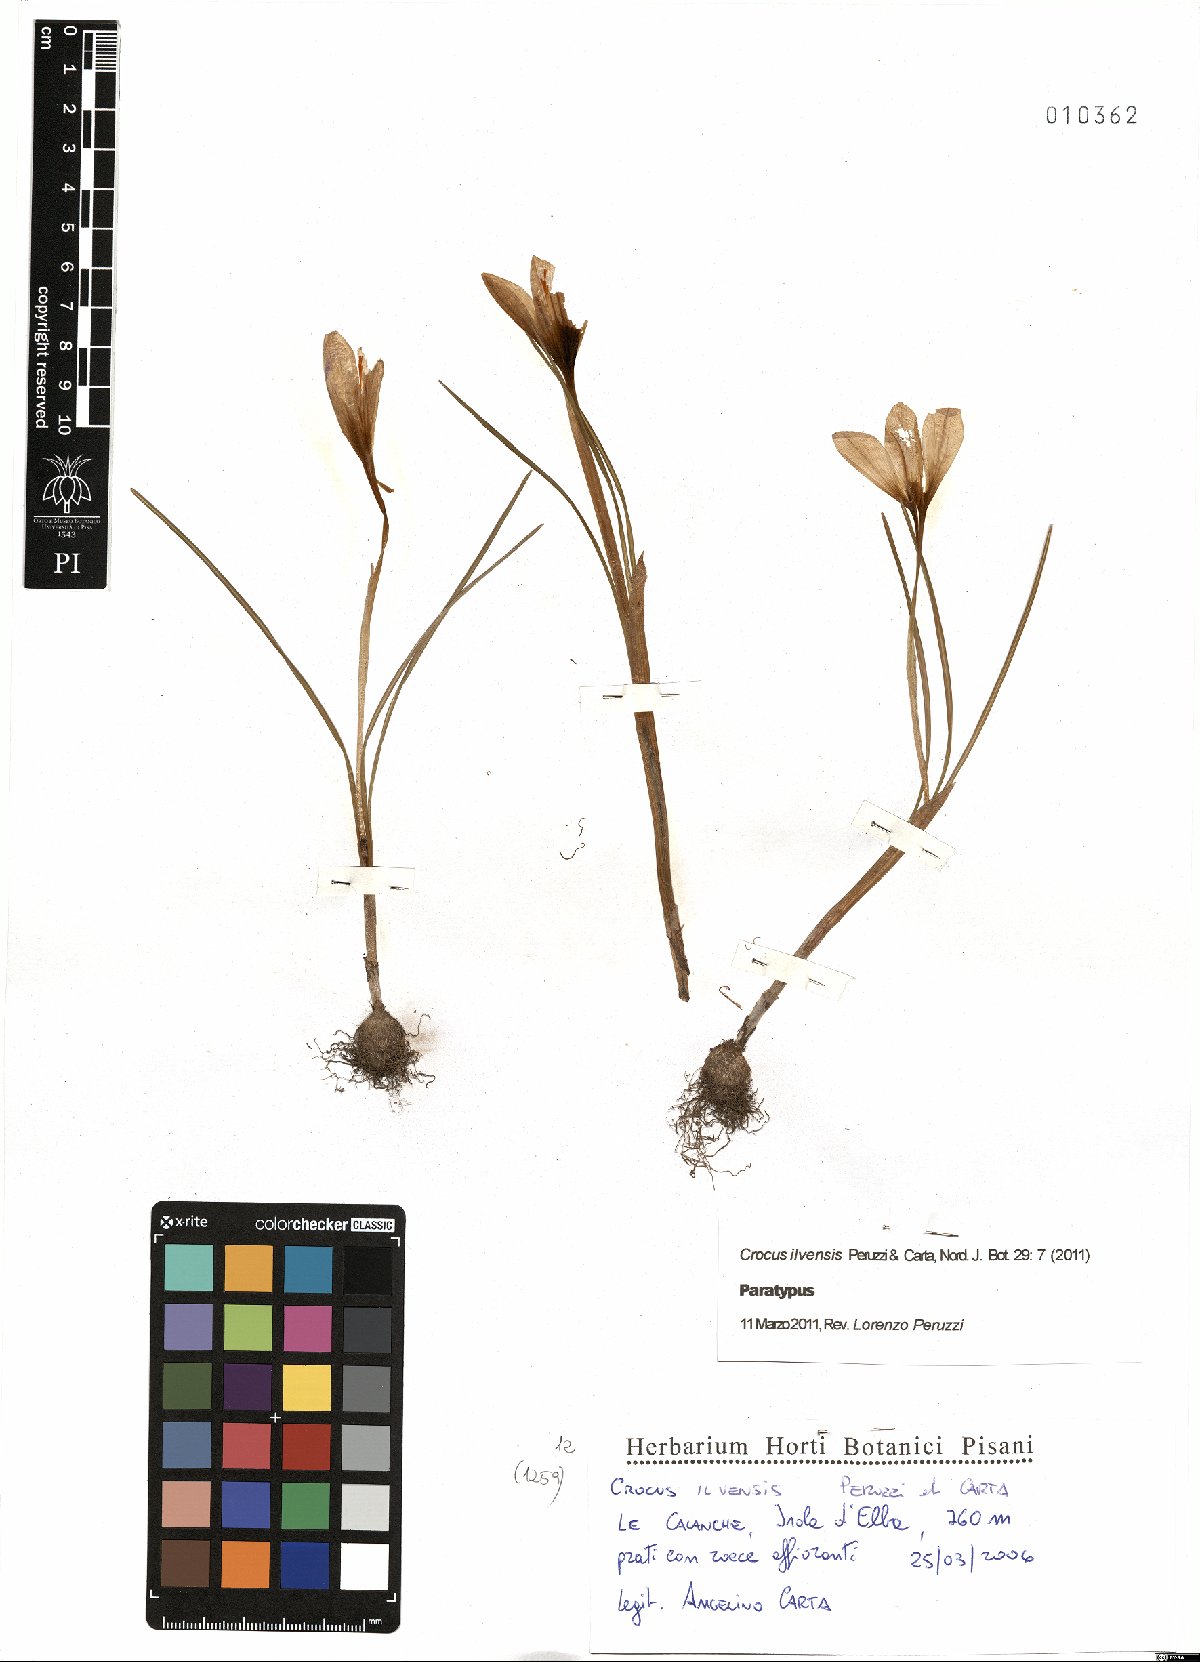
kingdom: Plantae
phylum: Tracheophyta
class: Liliopsida
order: Asparagales
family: Iridaceae
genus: Crocus
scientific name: Crocus ilvensis
